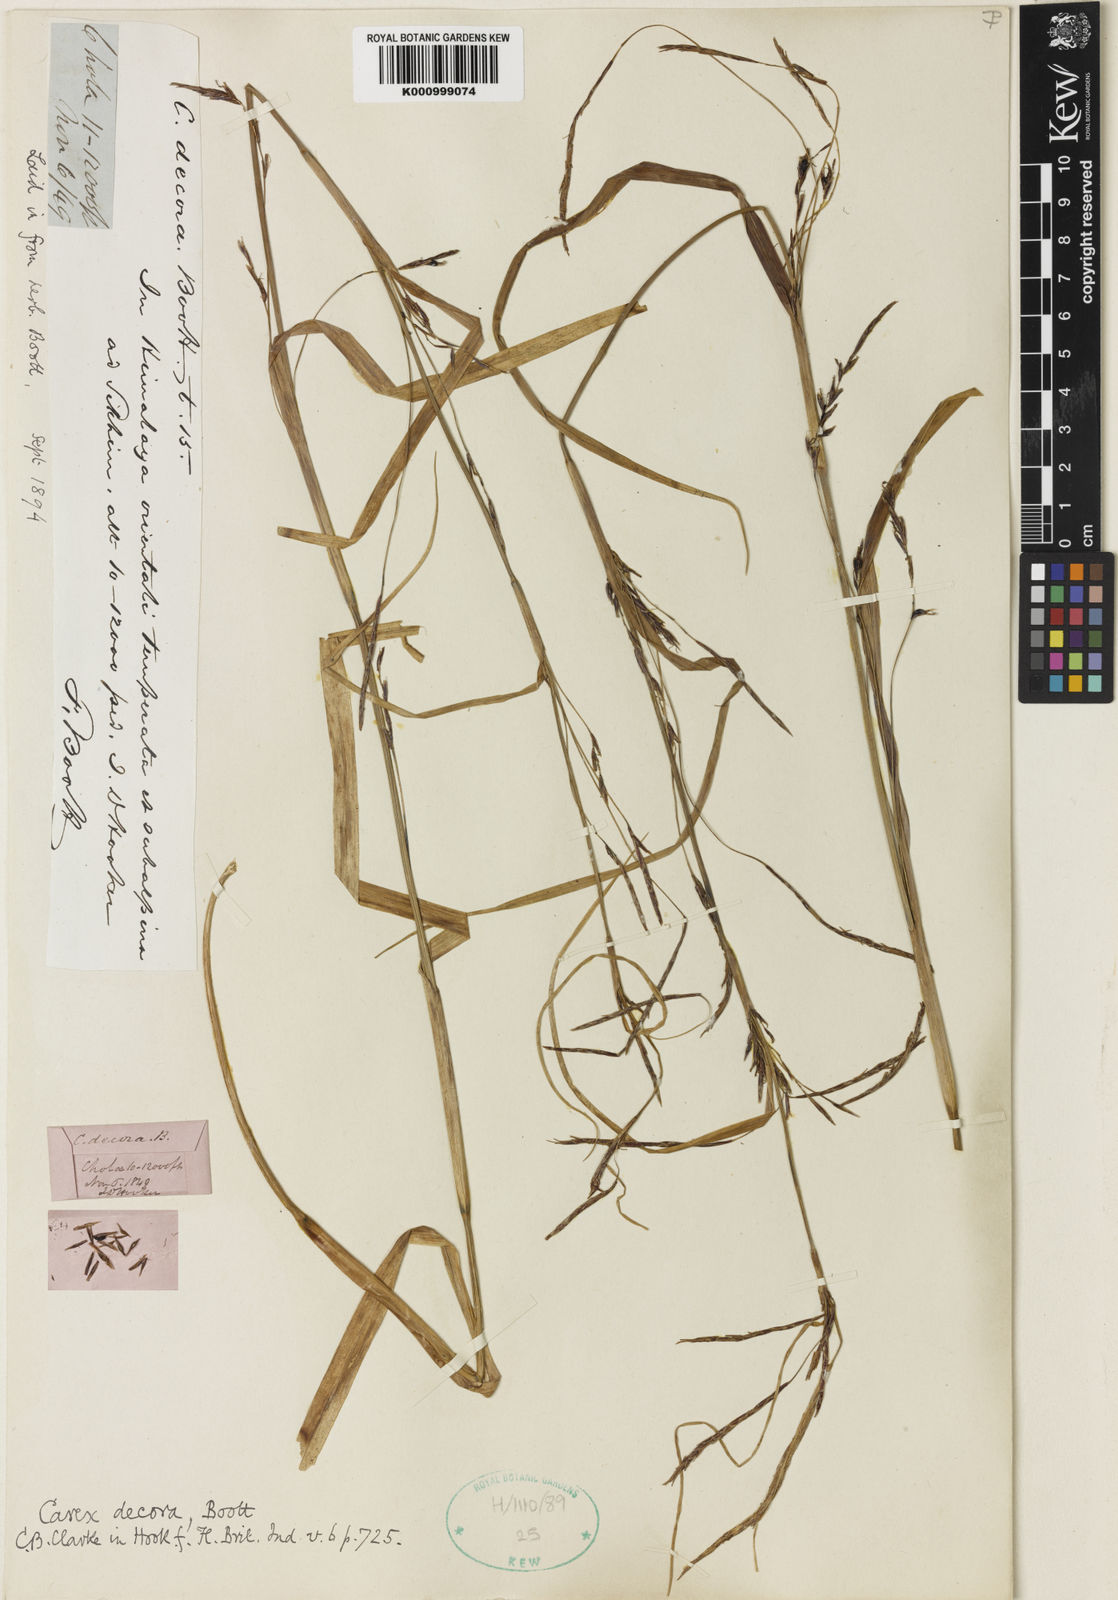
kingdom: Plantae
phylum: Tracheophyta
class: Liliopsida
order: Poales
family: Cyperaceae
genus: Carex
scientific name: Carex decora
